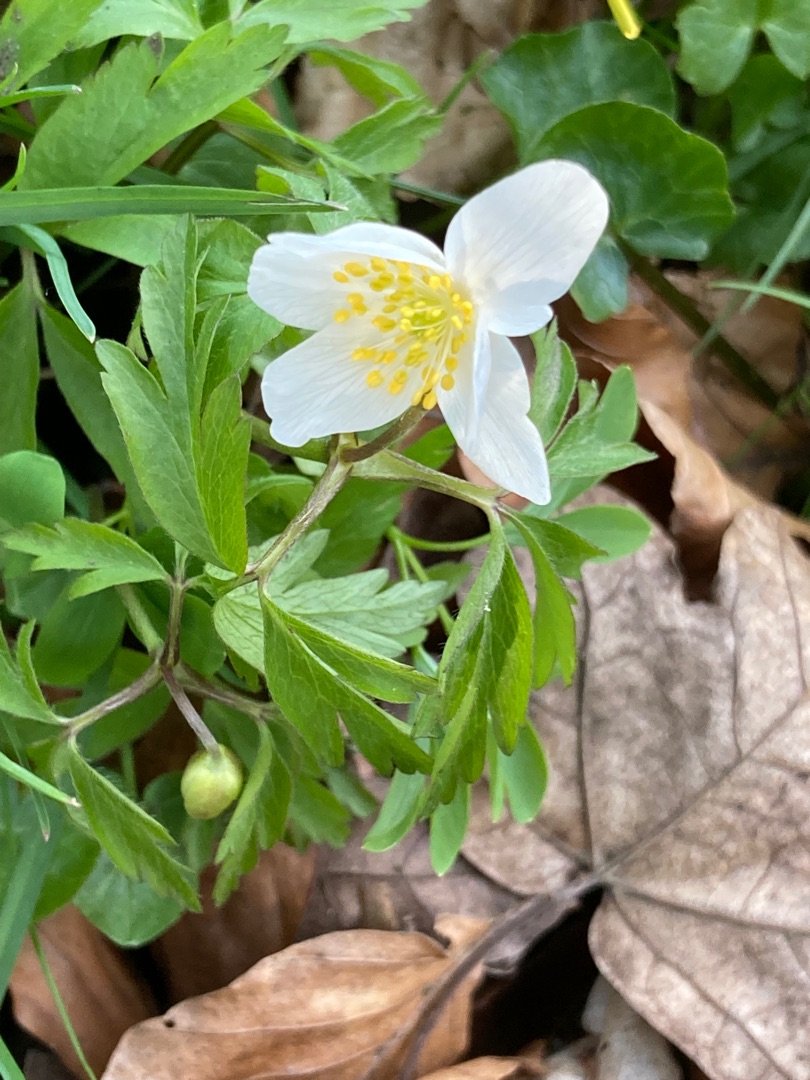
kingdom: Plantae
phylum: Tracheophyta
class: Magnoliopsida
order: Ranunculales
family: Ranunculaceae
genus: Anemone
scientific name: Anemone nemorosa
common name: Hvid anemone
